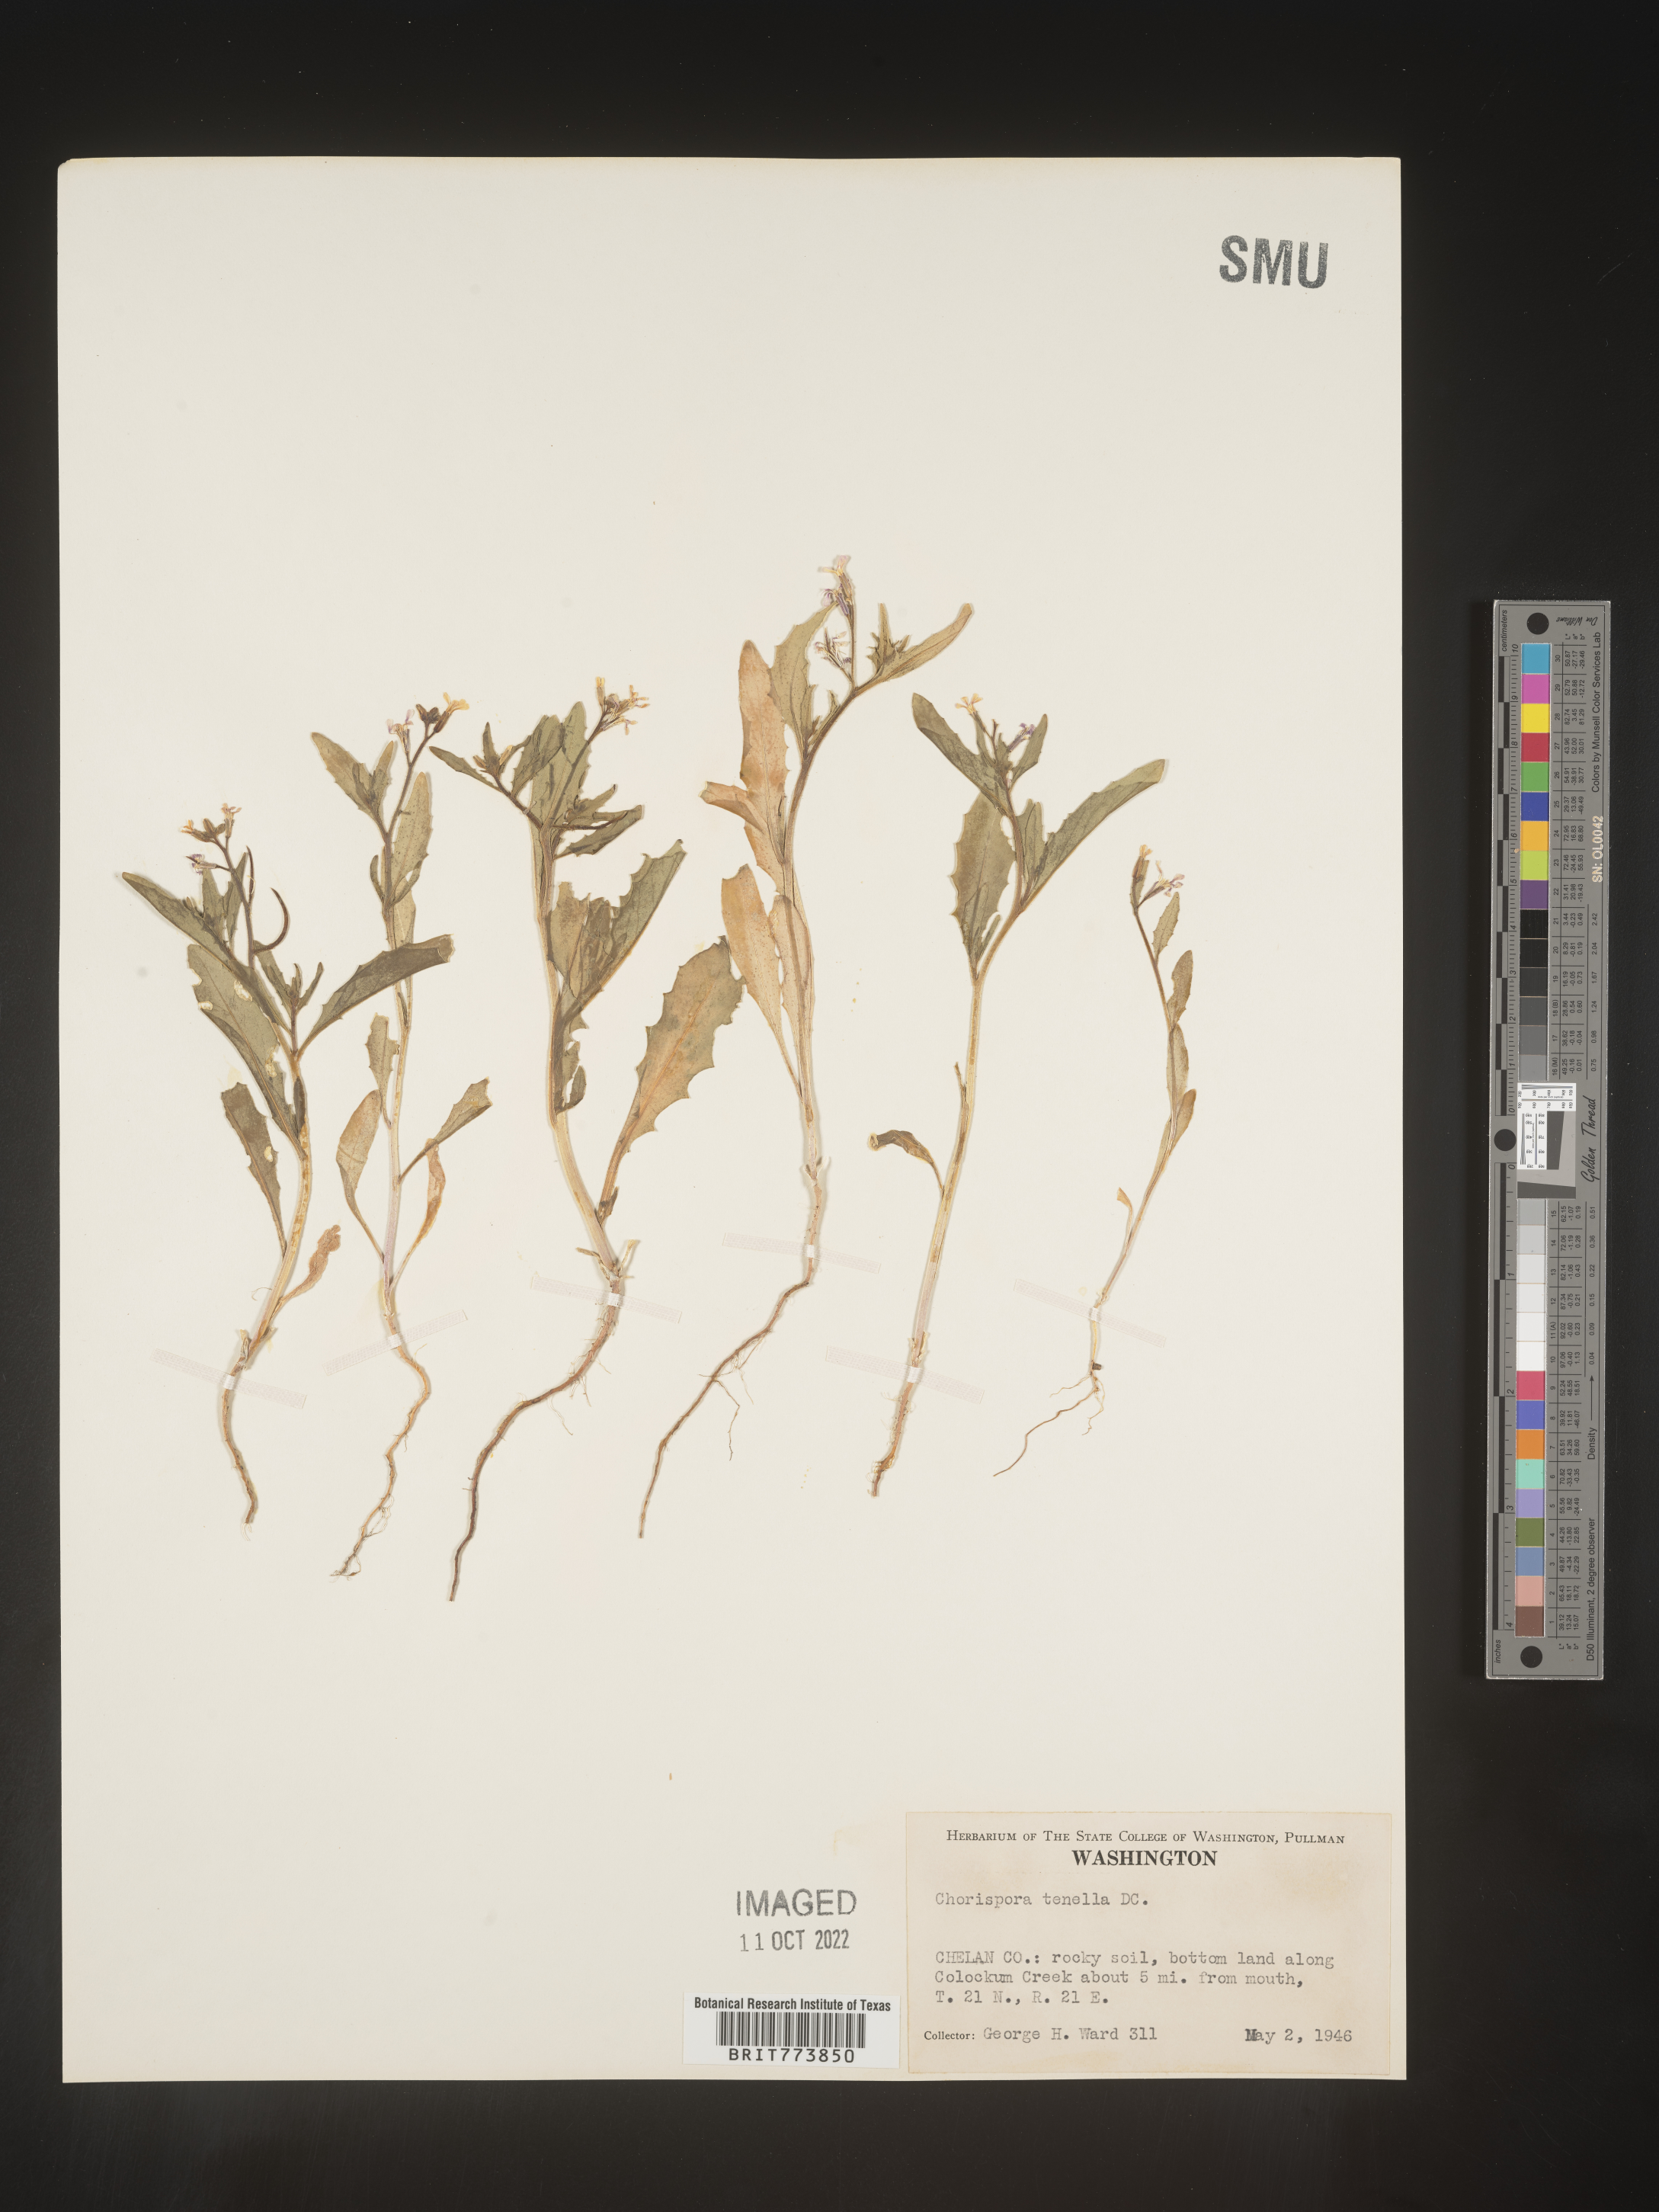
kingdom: Plantae
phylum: Tracheophyta
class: Magnoliopsida
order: Brassicales
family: Brassicaceae
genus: Chorispora
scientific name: Chorispora tenella
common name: Crossflower
